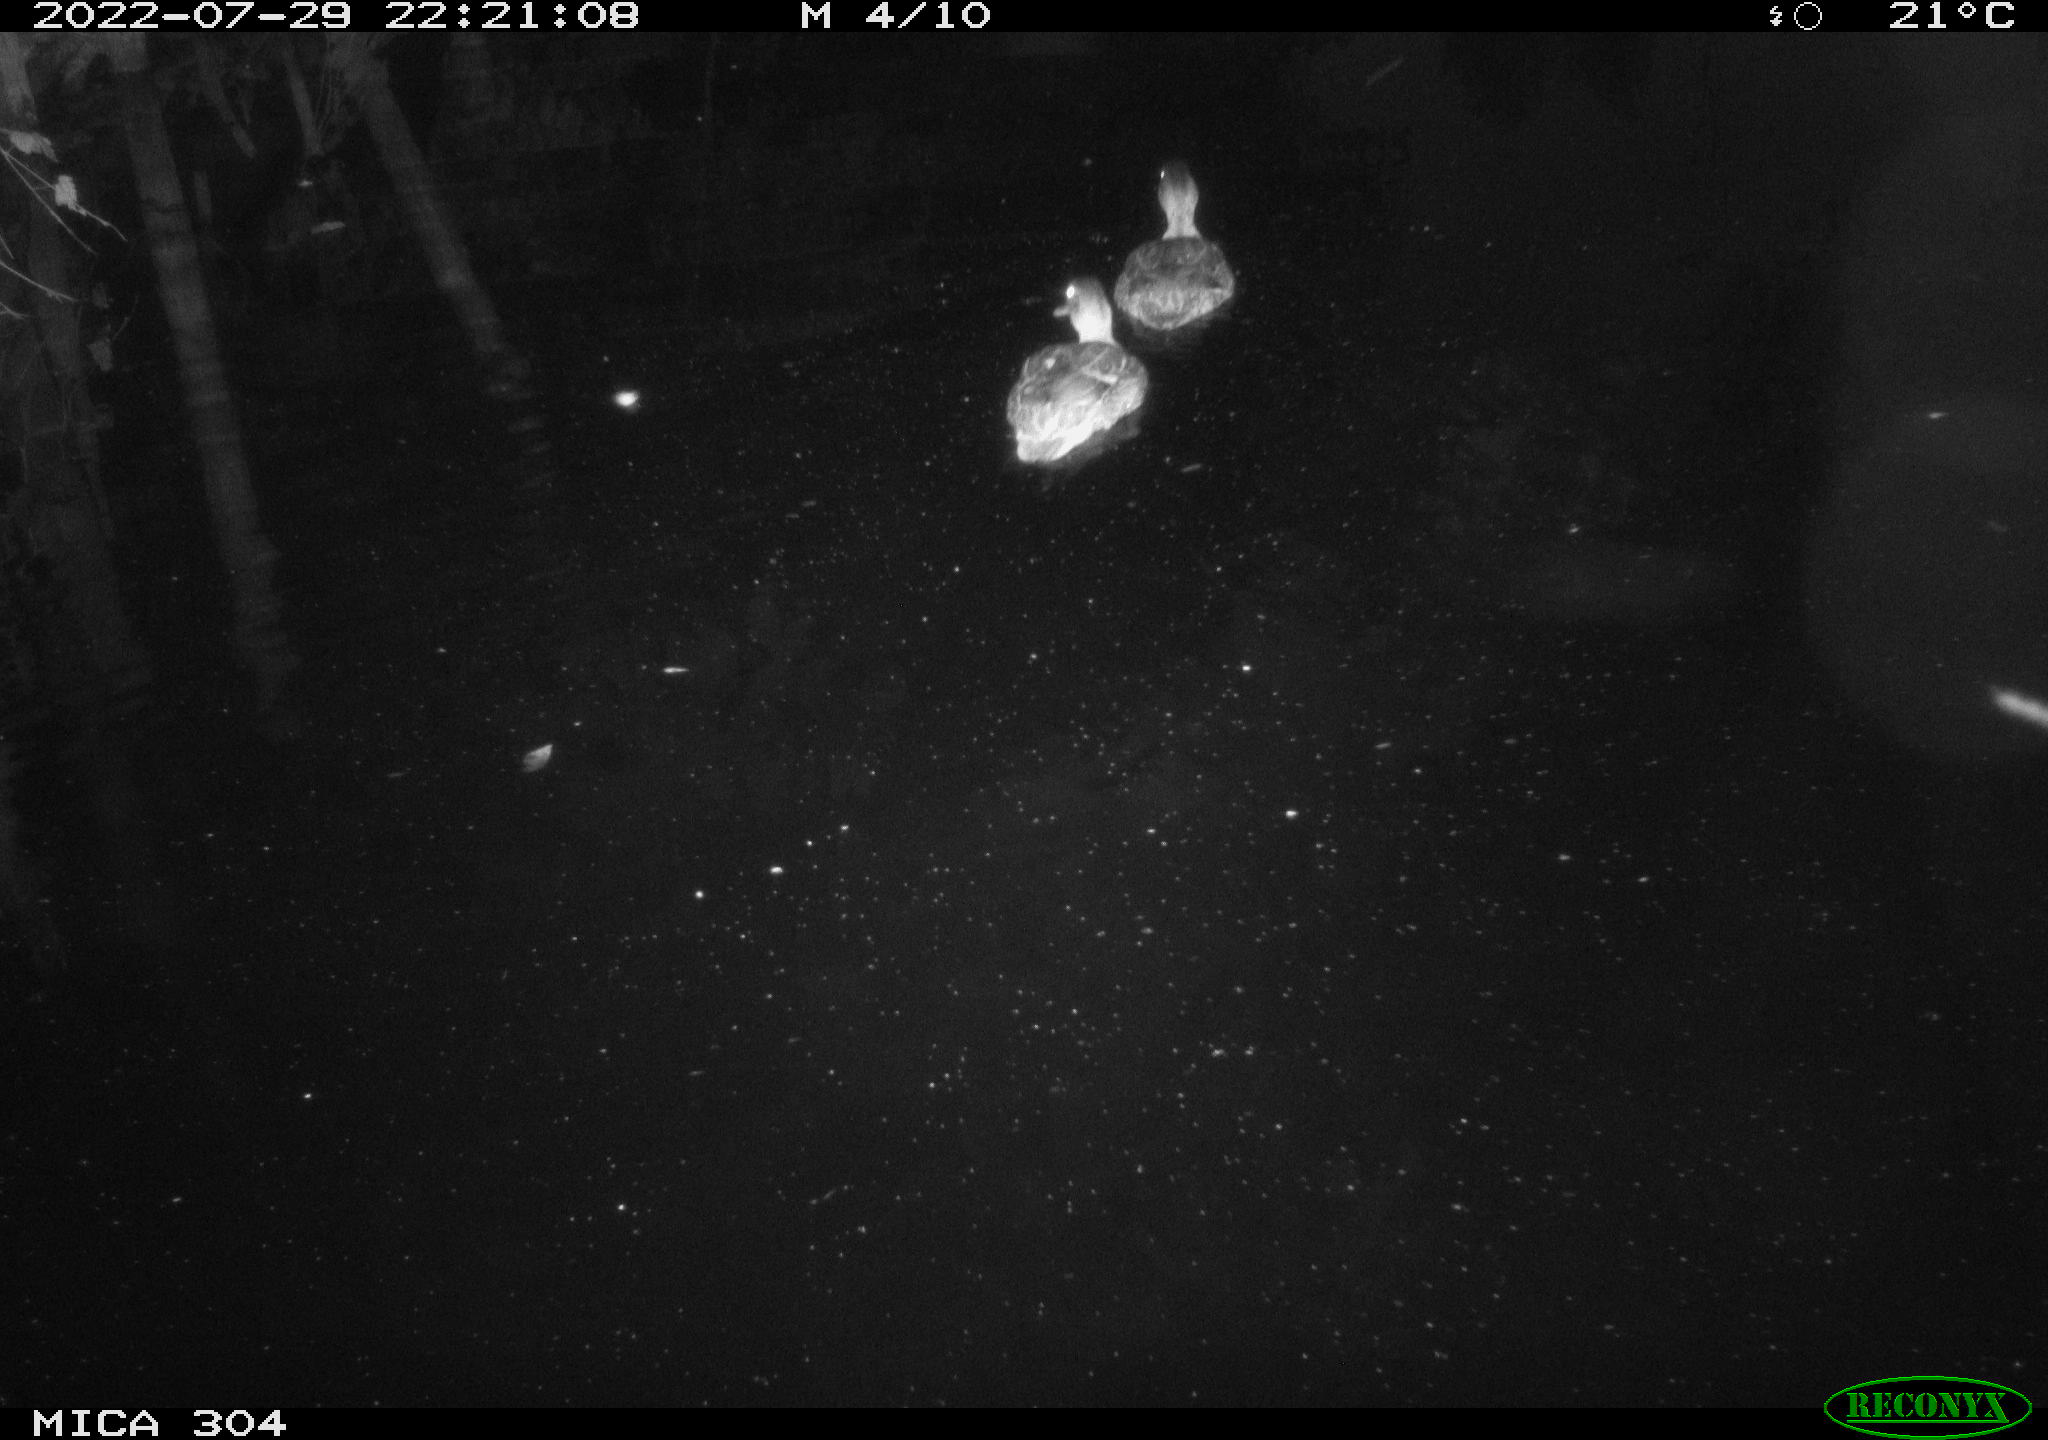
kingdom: Animalia
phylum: Chordata
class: Aves
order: Anseriformes
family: Anatidae
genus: Anas
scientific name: Anas platyrhynchos
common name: Mallard
